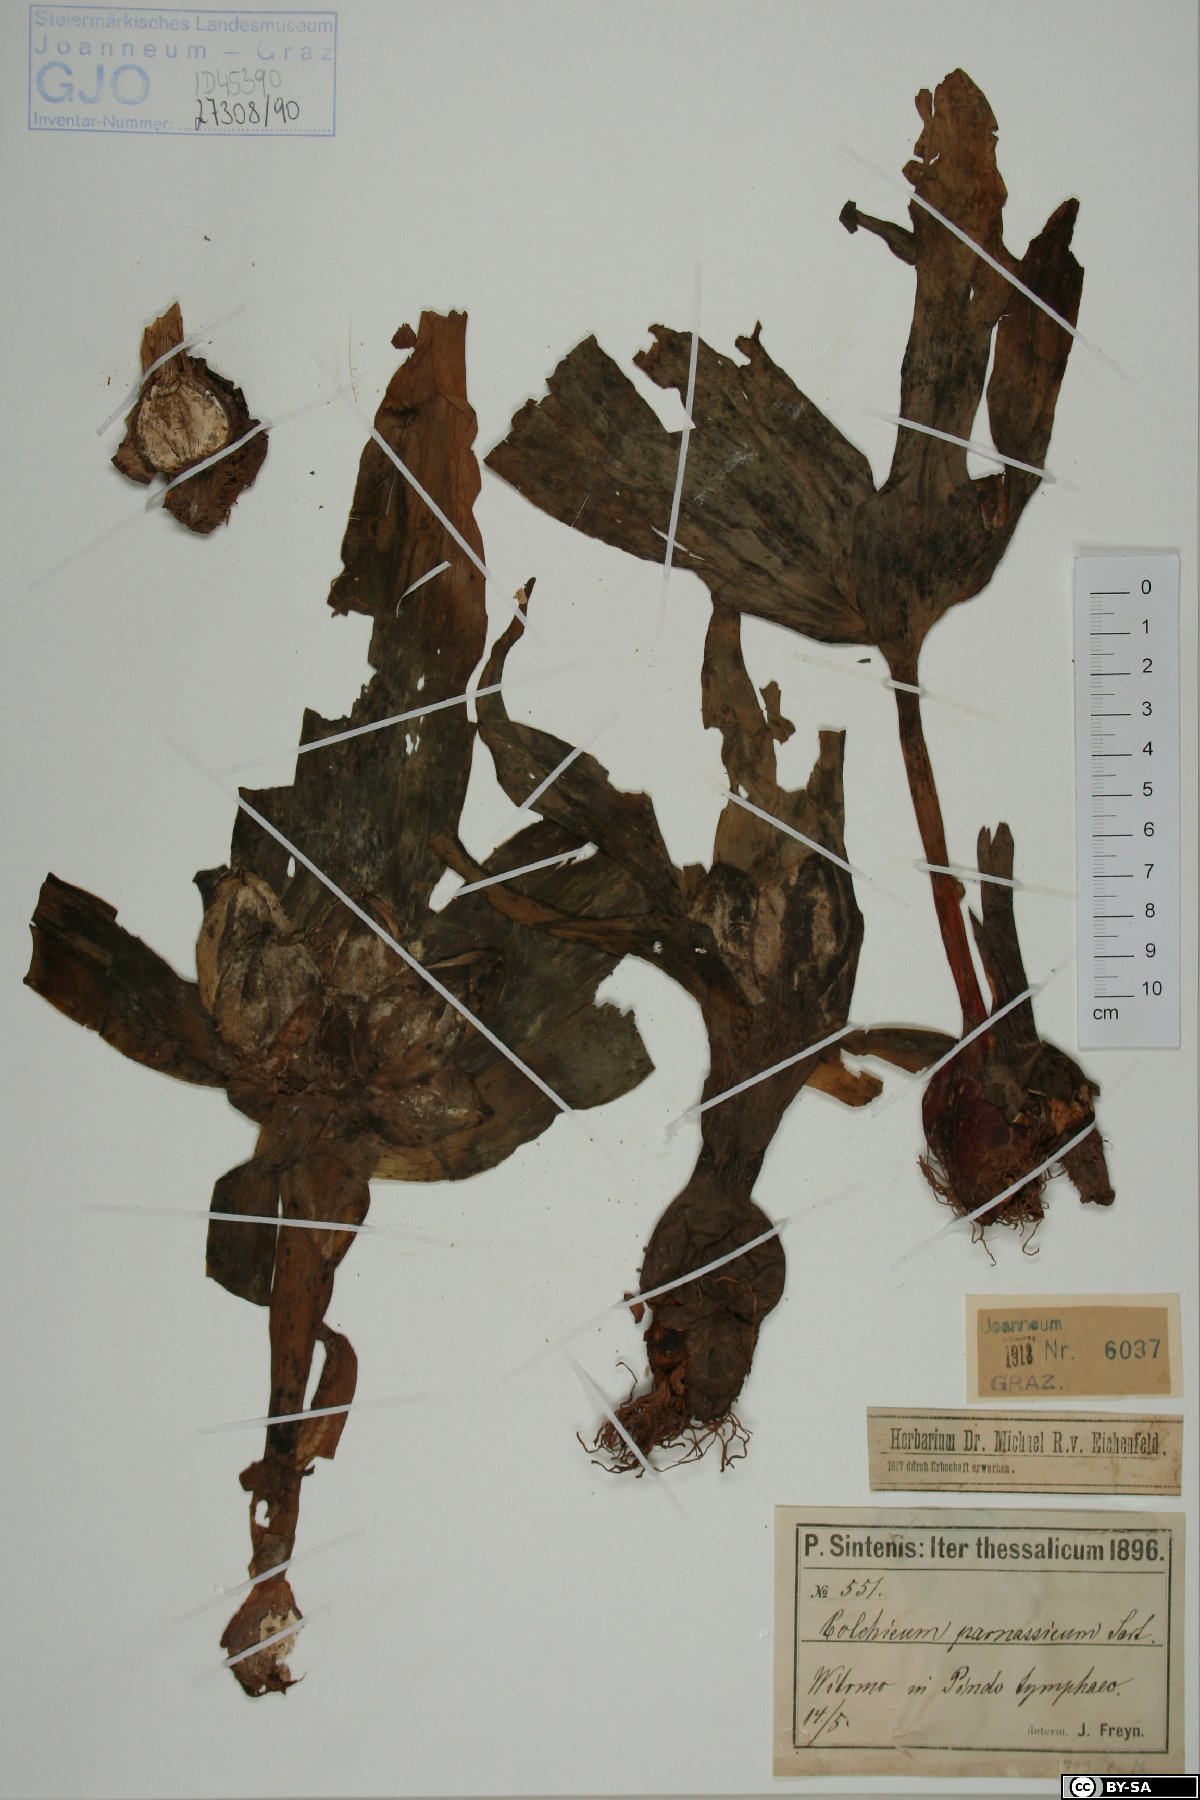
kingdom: Plantae
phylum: Tracheophyta
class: Liliopsida
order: Liliales
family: Colchicaceae
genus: Colchicum
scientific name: Colchicum parnassicum
